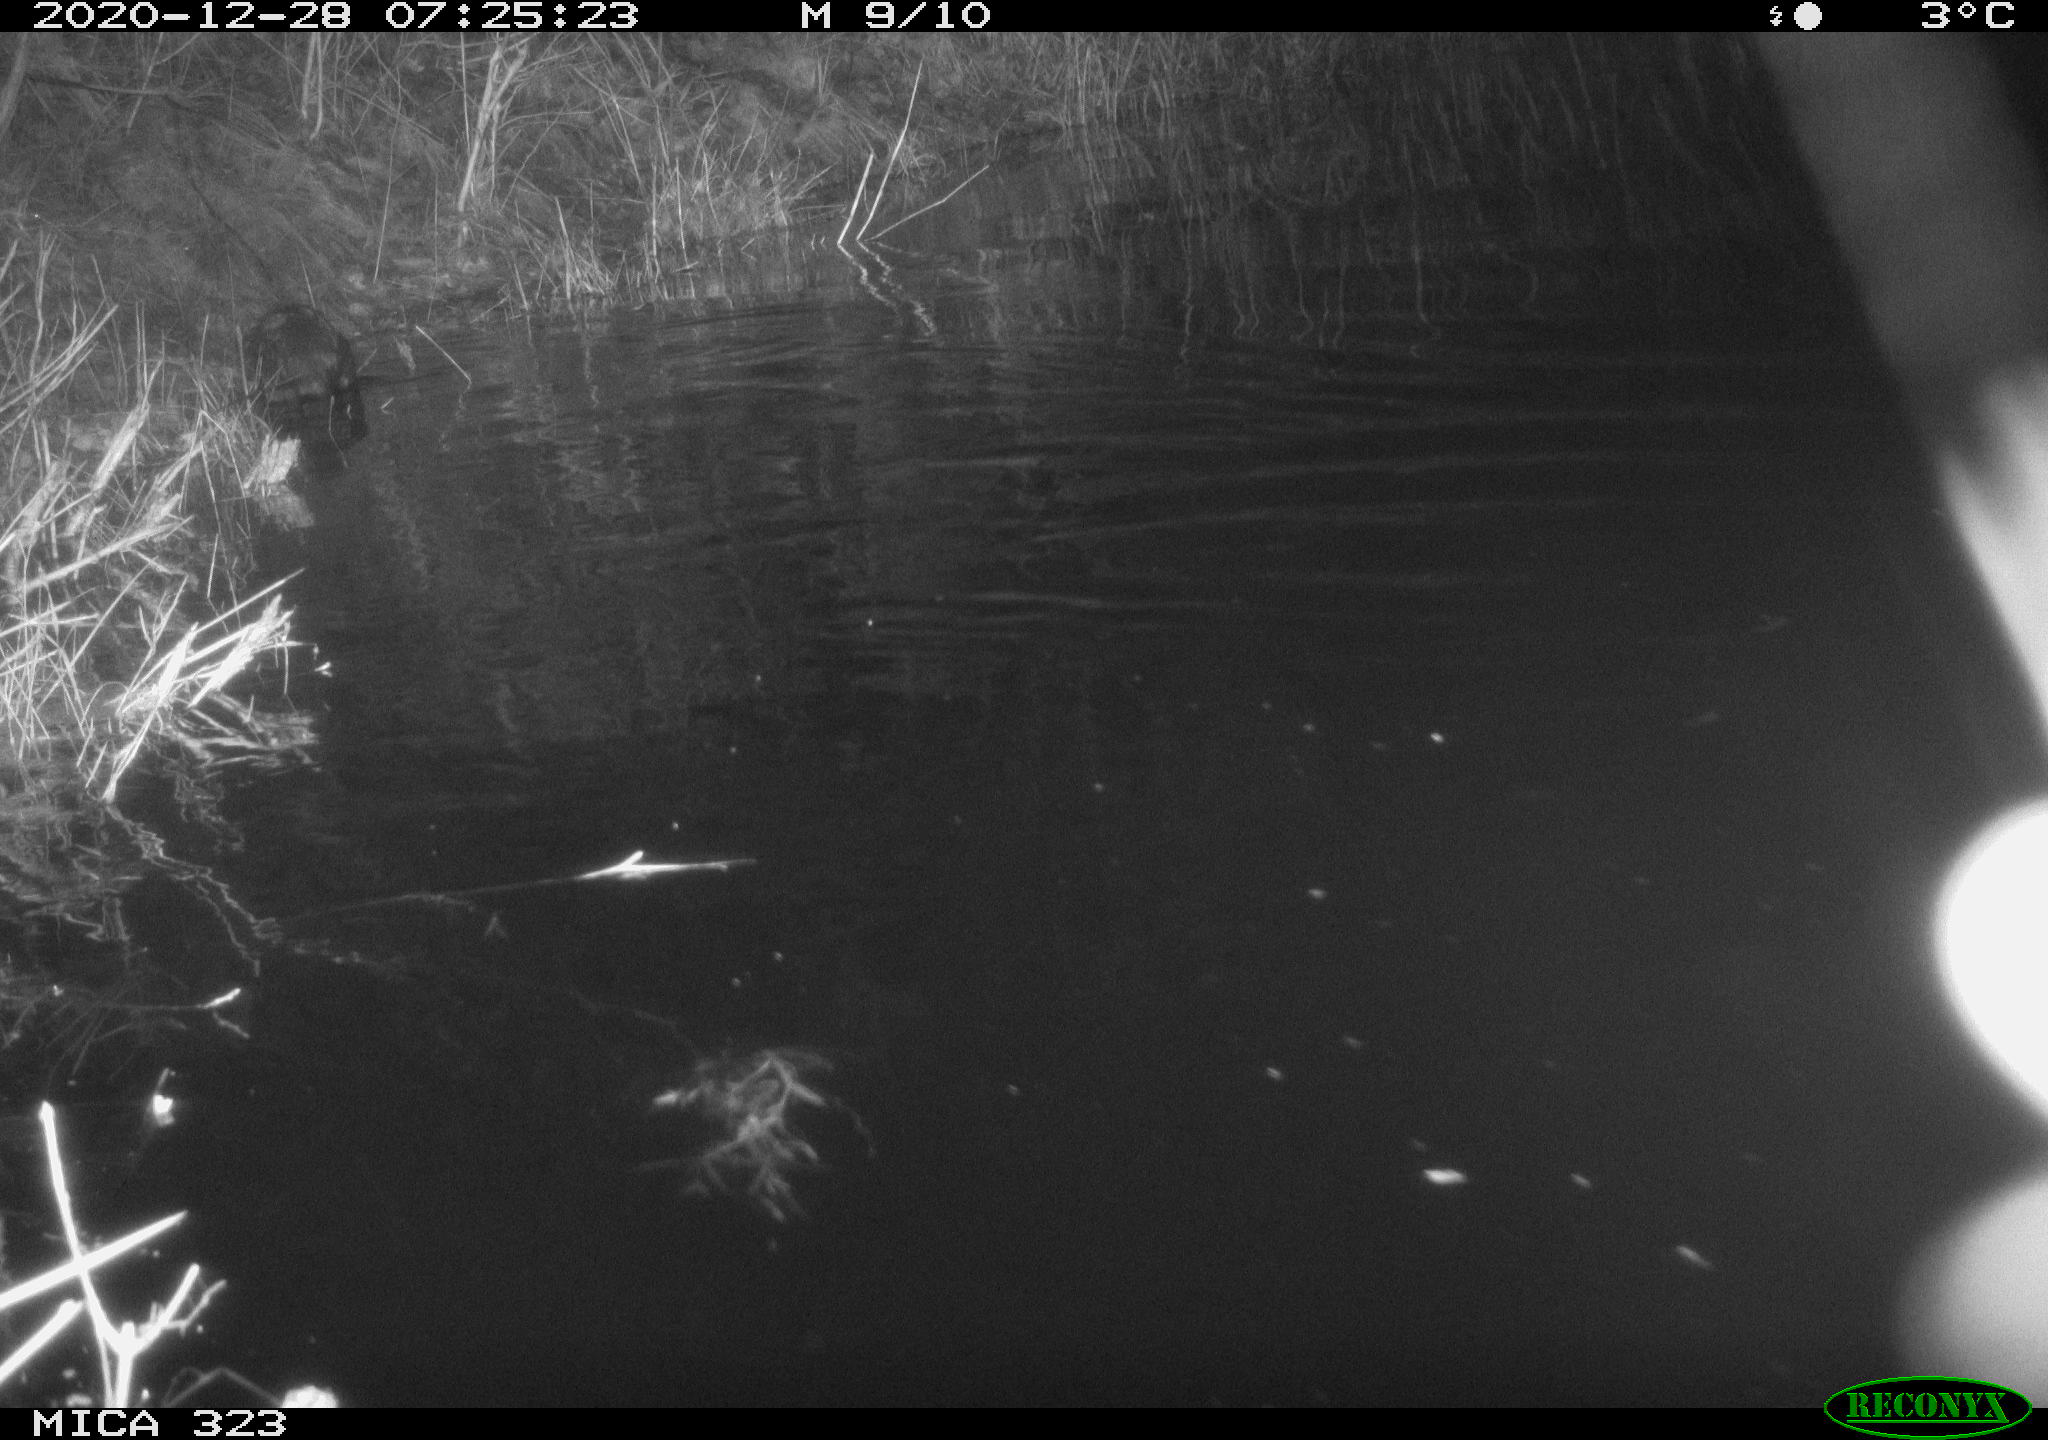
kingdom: Animalia
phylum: Chordata
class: Mammalia
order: Rodentia
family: Myocastoridae
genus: Myocastor
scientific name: Myocastor coypus
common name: Coypu
